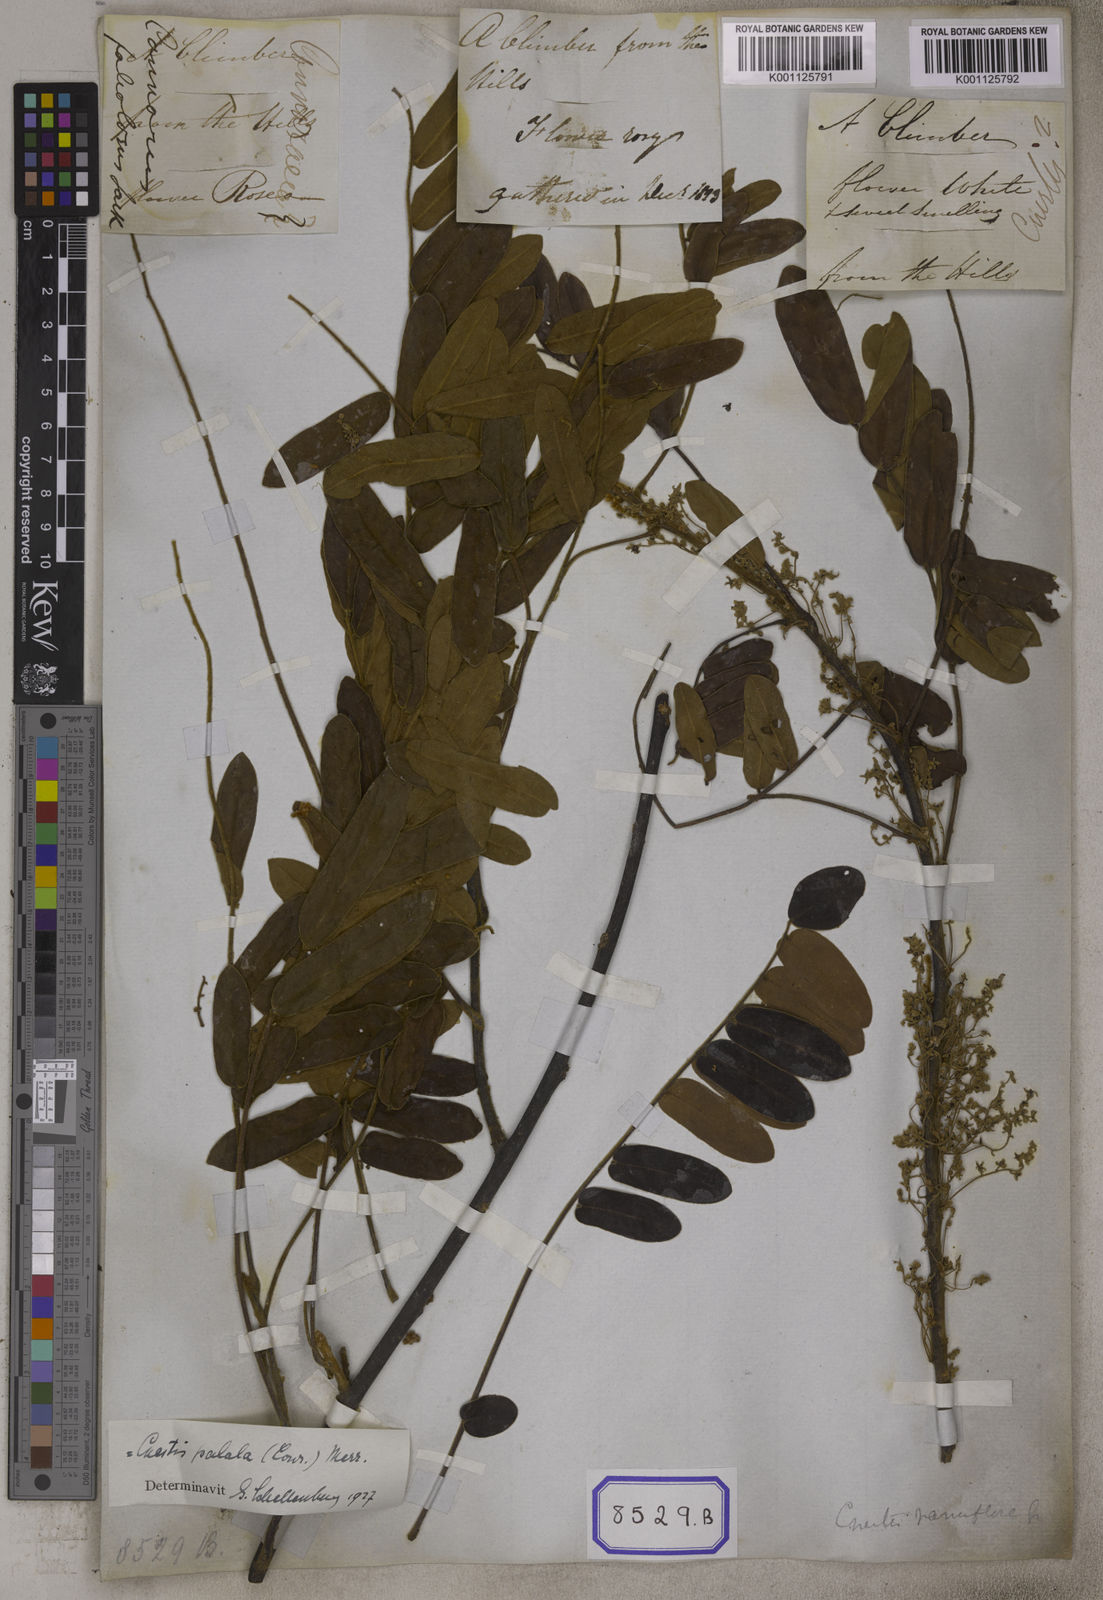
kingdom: Plantae
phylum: Tracheophyta
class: Magnoliopsida
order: Oxalidales
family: Connaraceae
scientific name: Connaraceae
